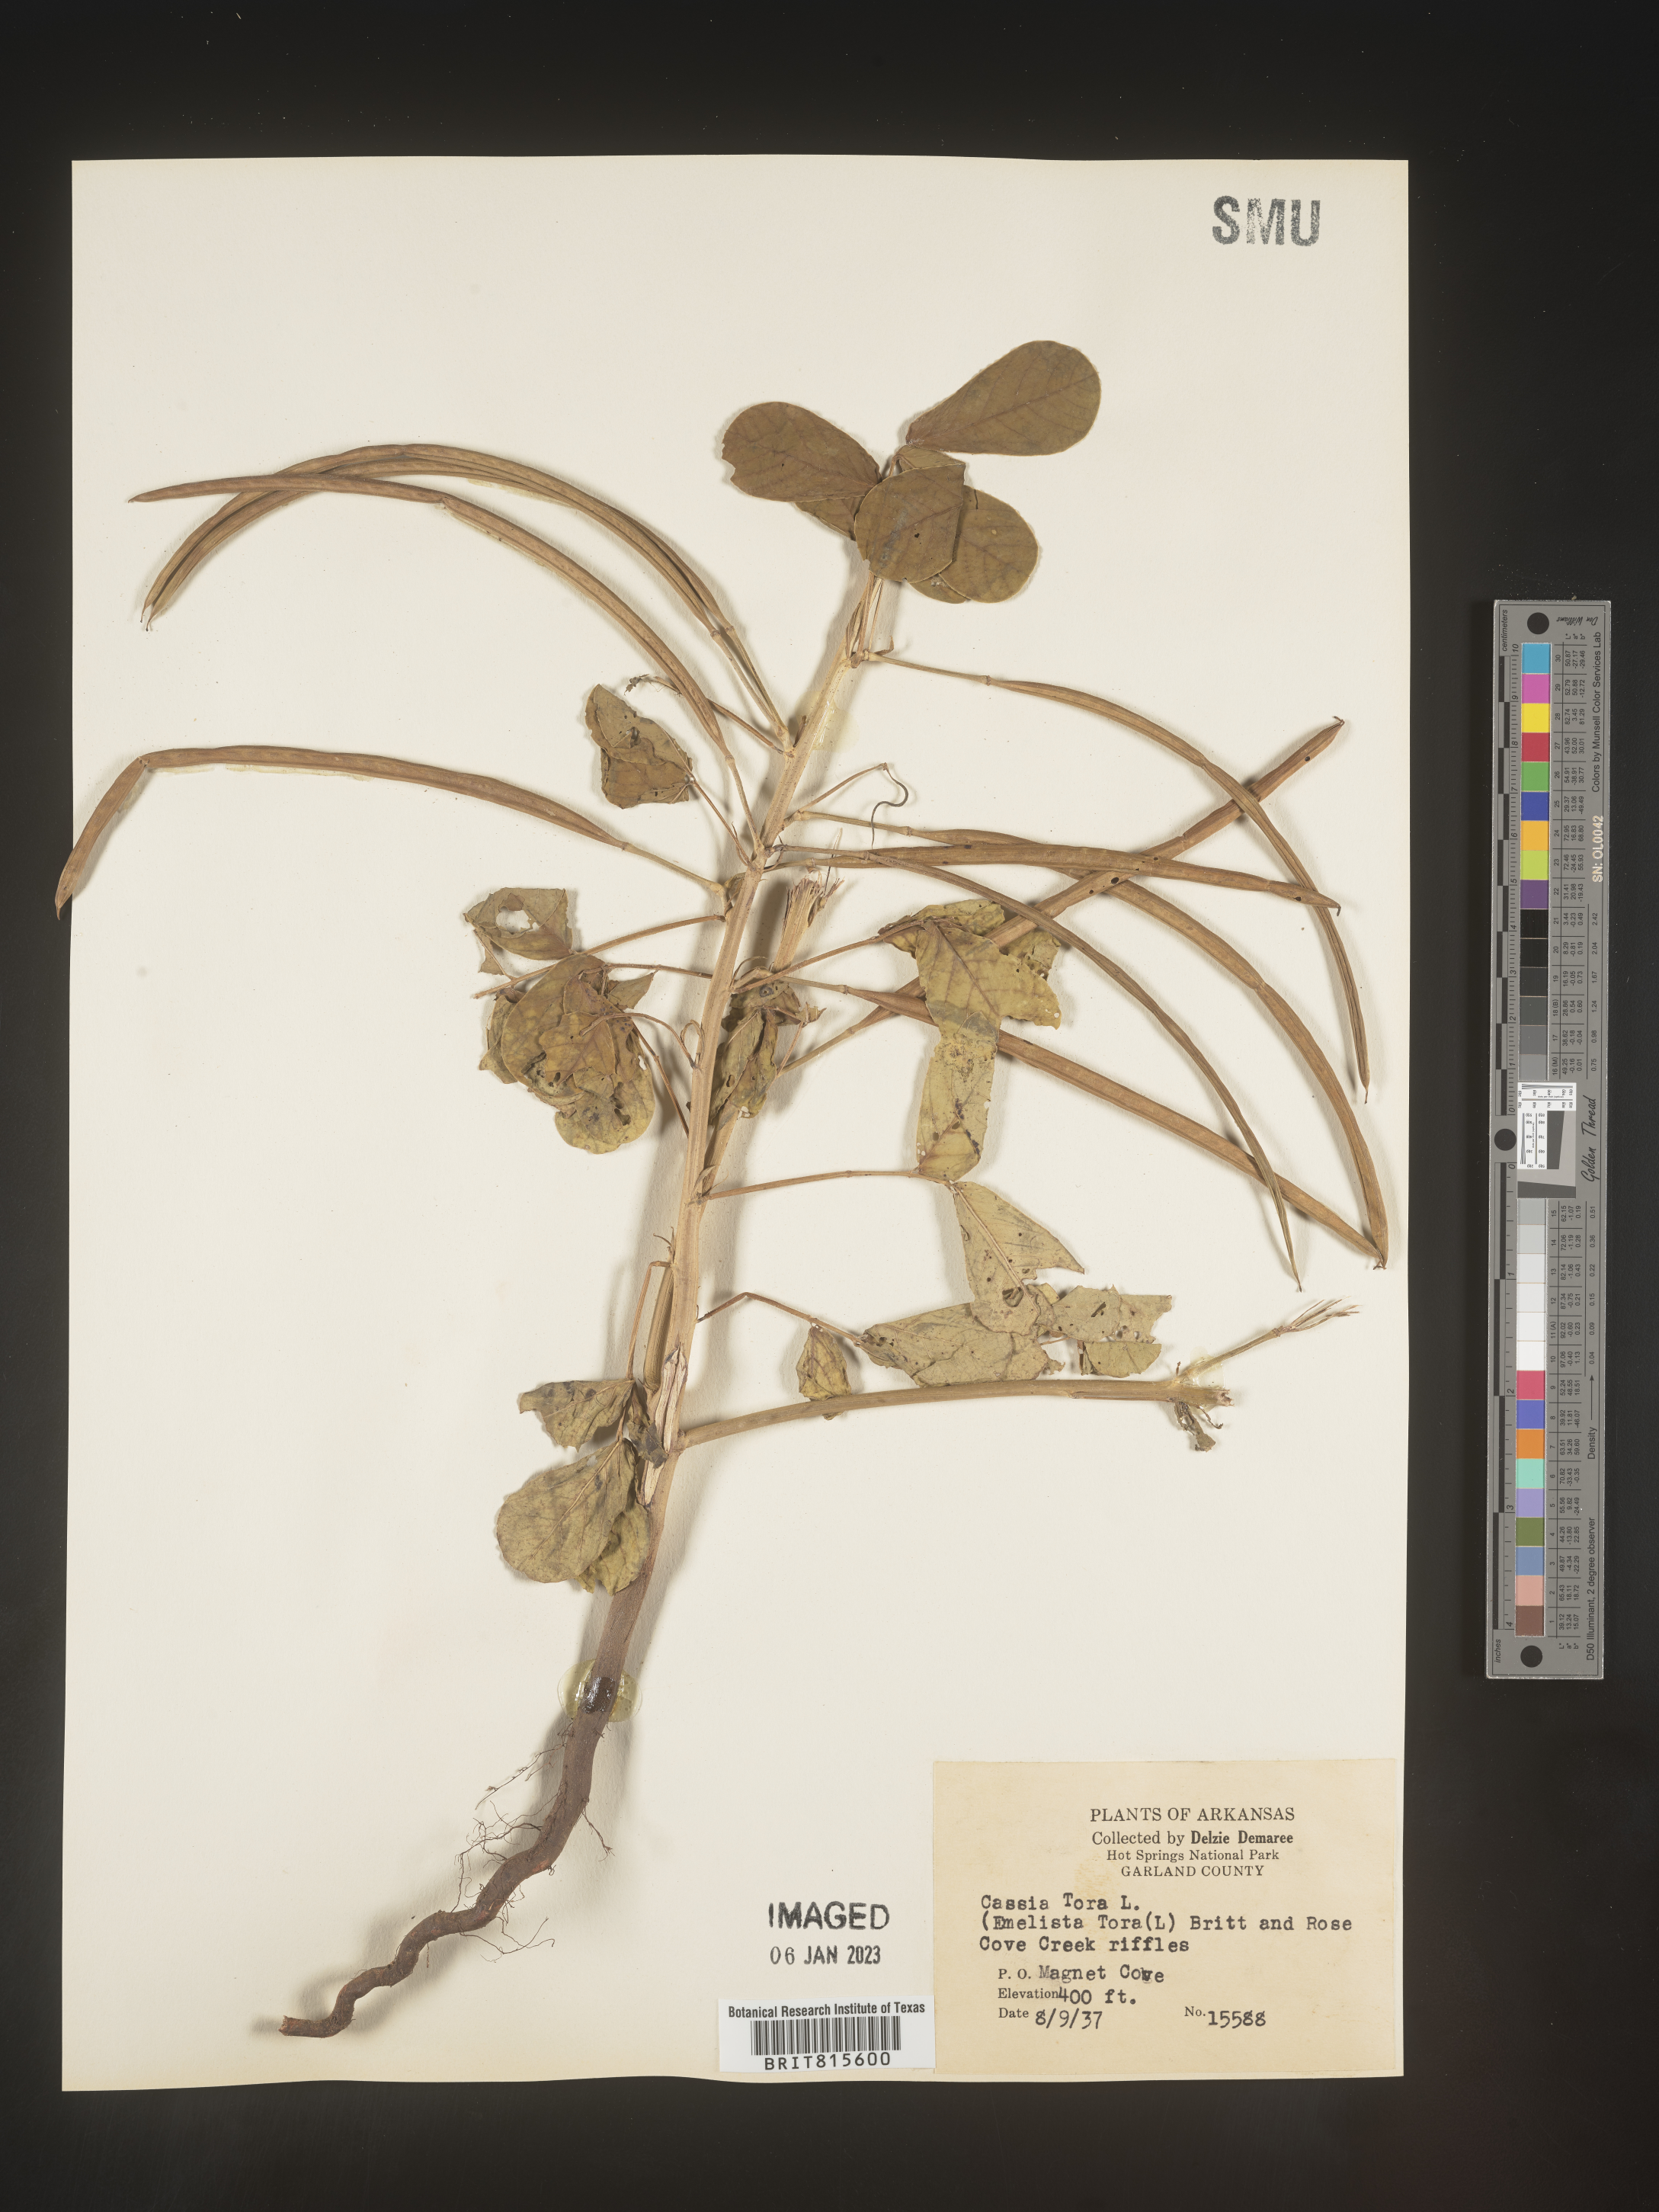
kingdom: Plantae
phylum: Tracheophyta
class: Magnoliopsida
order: Fabales
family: Fabaceae
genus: Senna
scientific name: Senna tora
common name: Sickle senna
